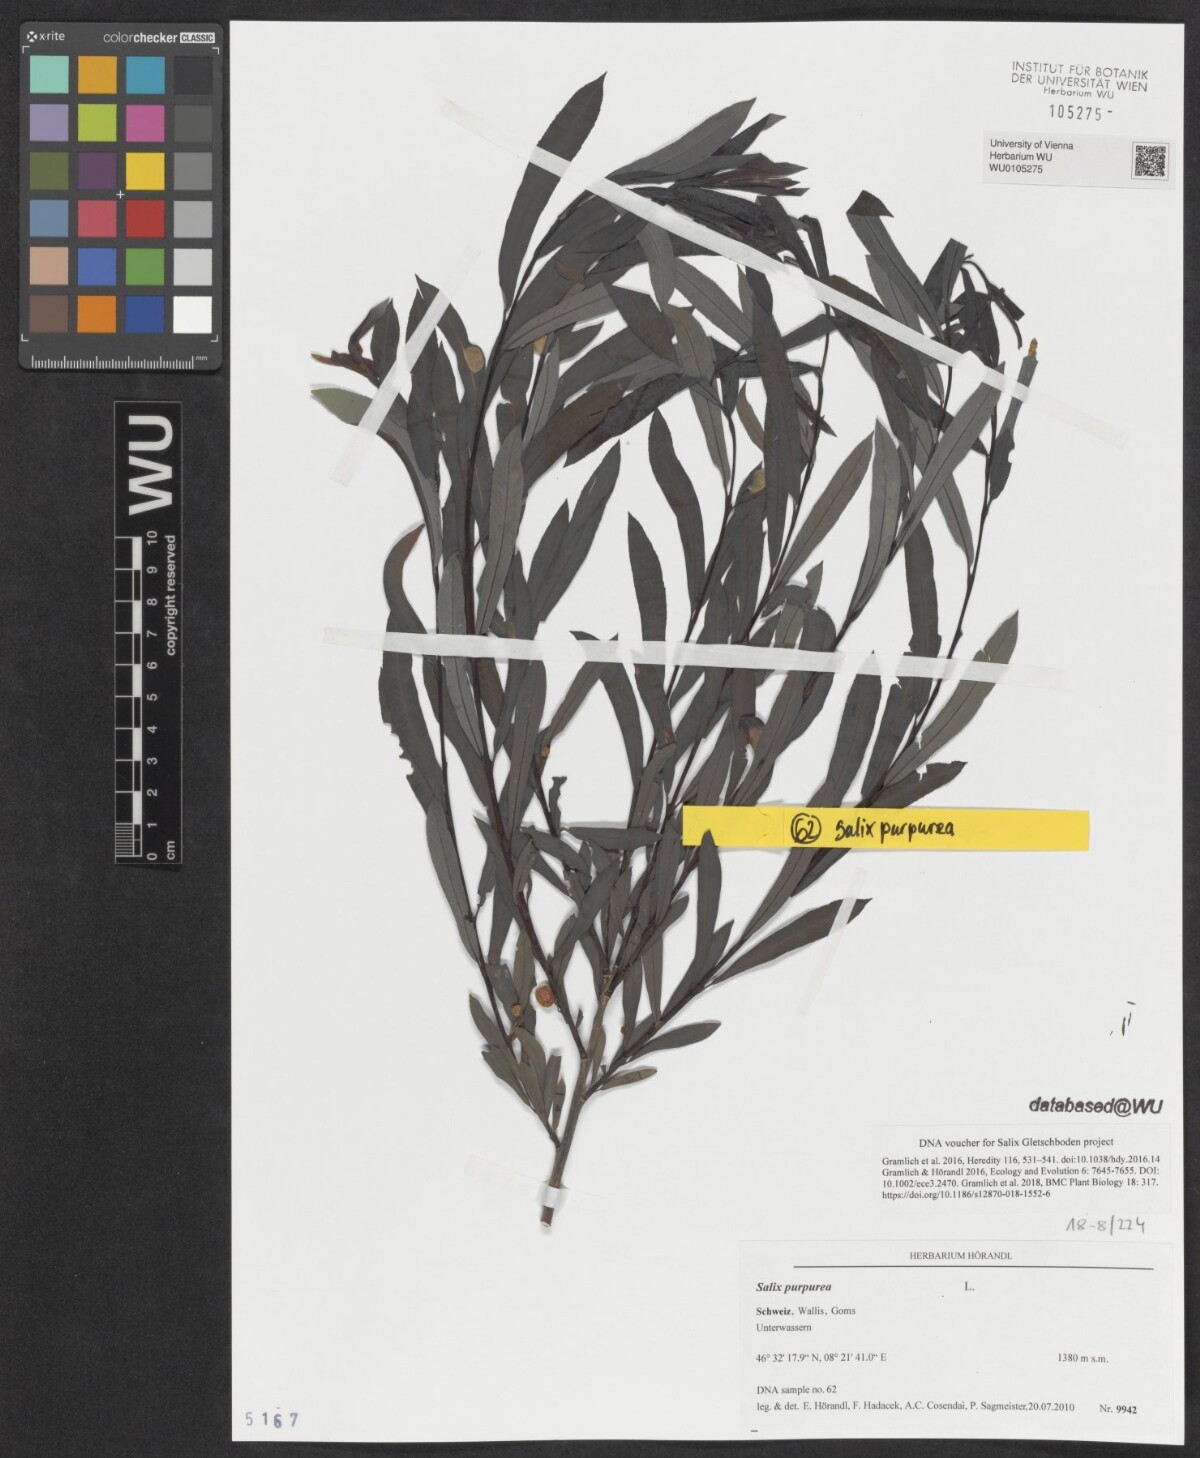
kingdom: Plantae
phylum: Tracheophyta
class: Magnoliopsida
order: Malpighiales
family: Salicaceae
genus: Salix
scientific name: Salix purpurea
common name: Purple willow
